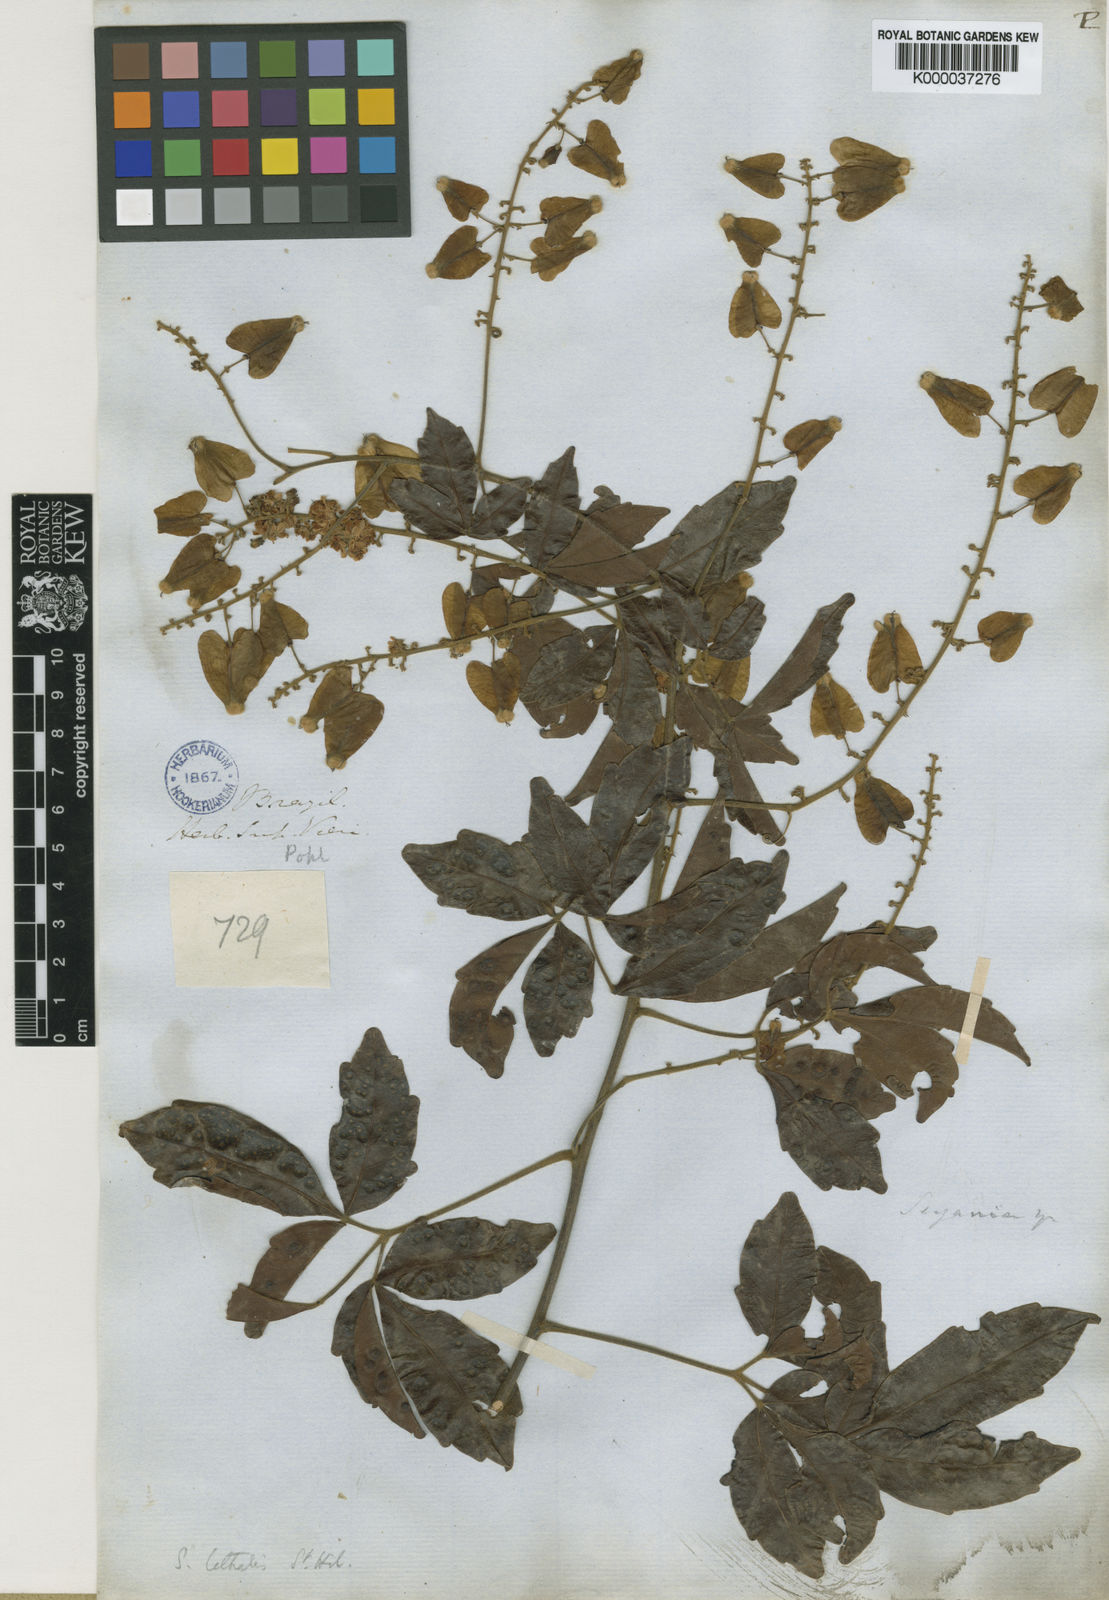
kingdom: Plantae
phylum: Tracheophyta
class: Magnoliopsida
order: Sapindales
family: Sapindaceae
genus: Serjania
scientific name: Serjania lethalis
